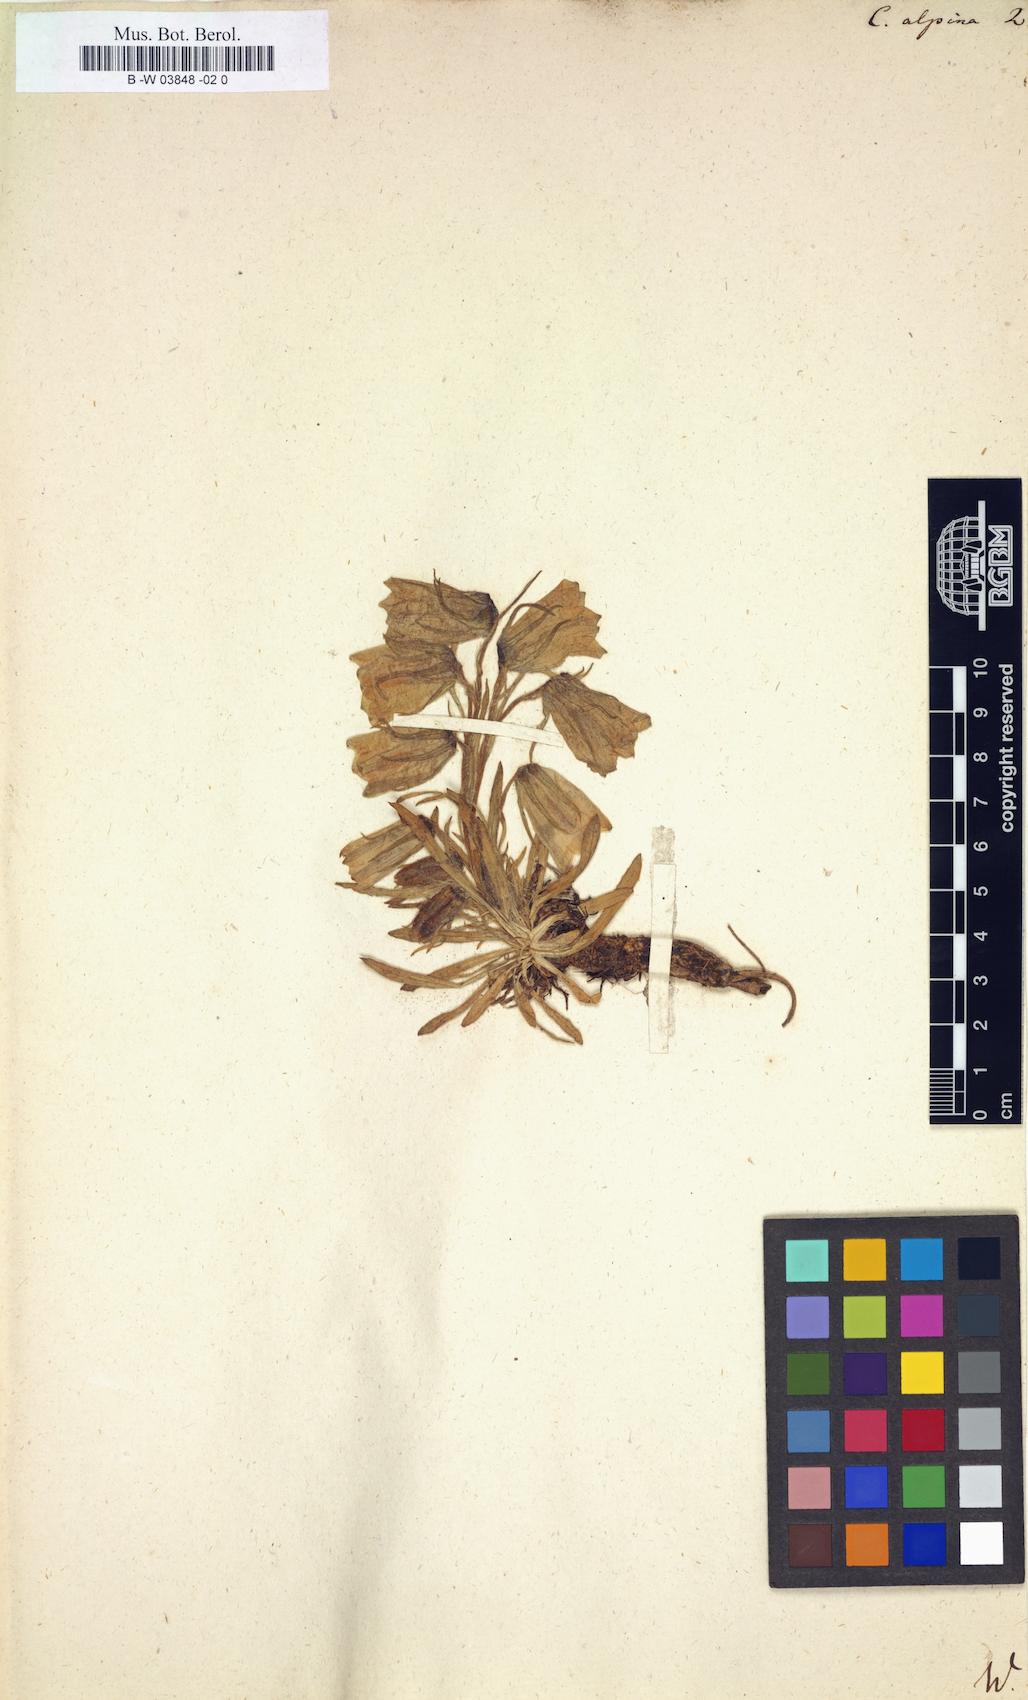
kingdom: Plantae
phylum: Tracheophyta
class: Magnoliopsida
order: Asterales
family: Campanulaceae
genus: Campanula
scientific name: Campanula alpina
